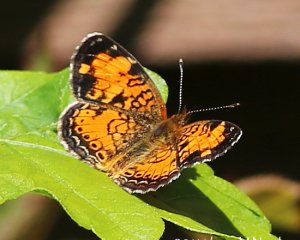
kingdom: Animalia
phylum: Arthropoda
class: Insecta
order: Lepidoptera
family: Nymphalidae
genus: Phyciodes
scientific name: Phyciodes tharos
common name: Northern Crescent
